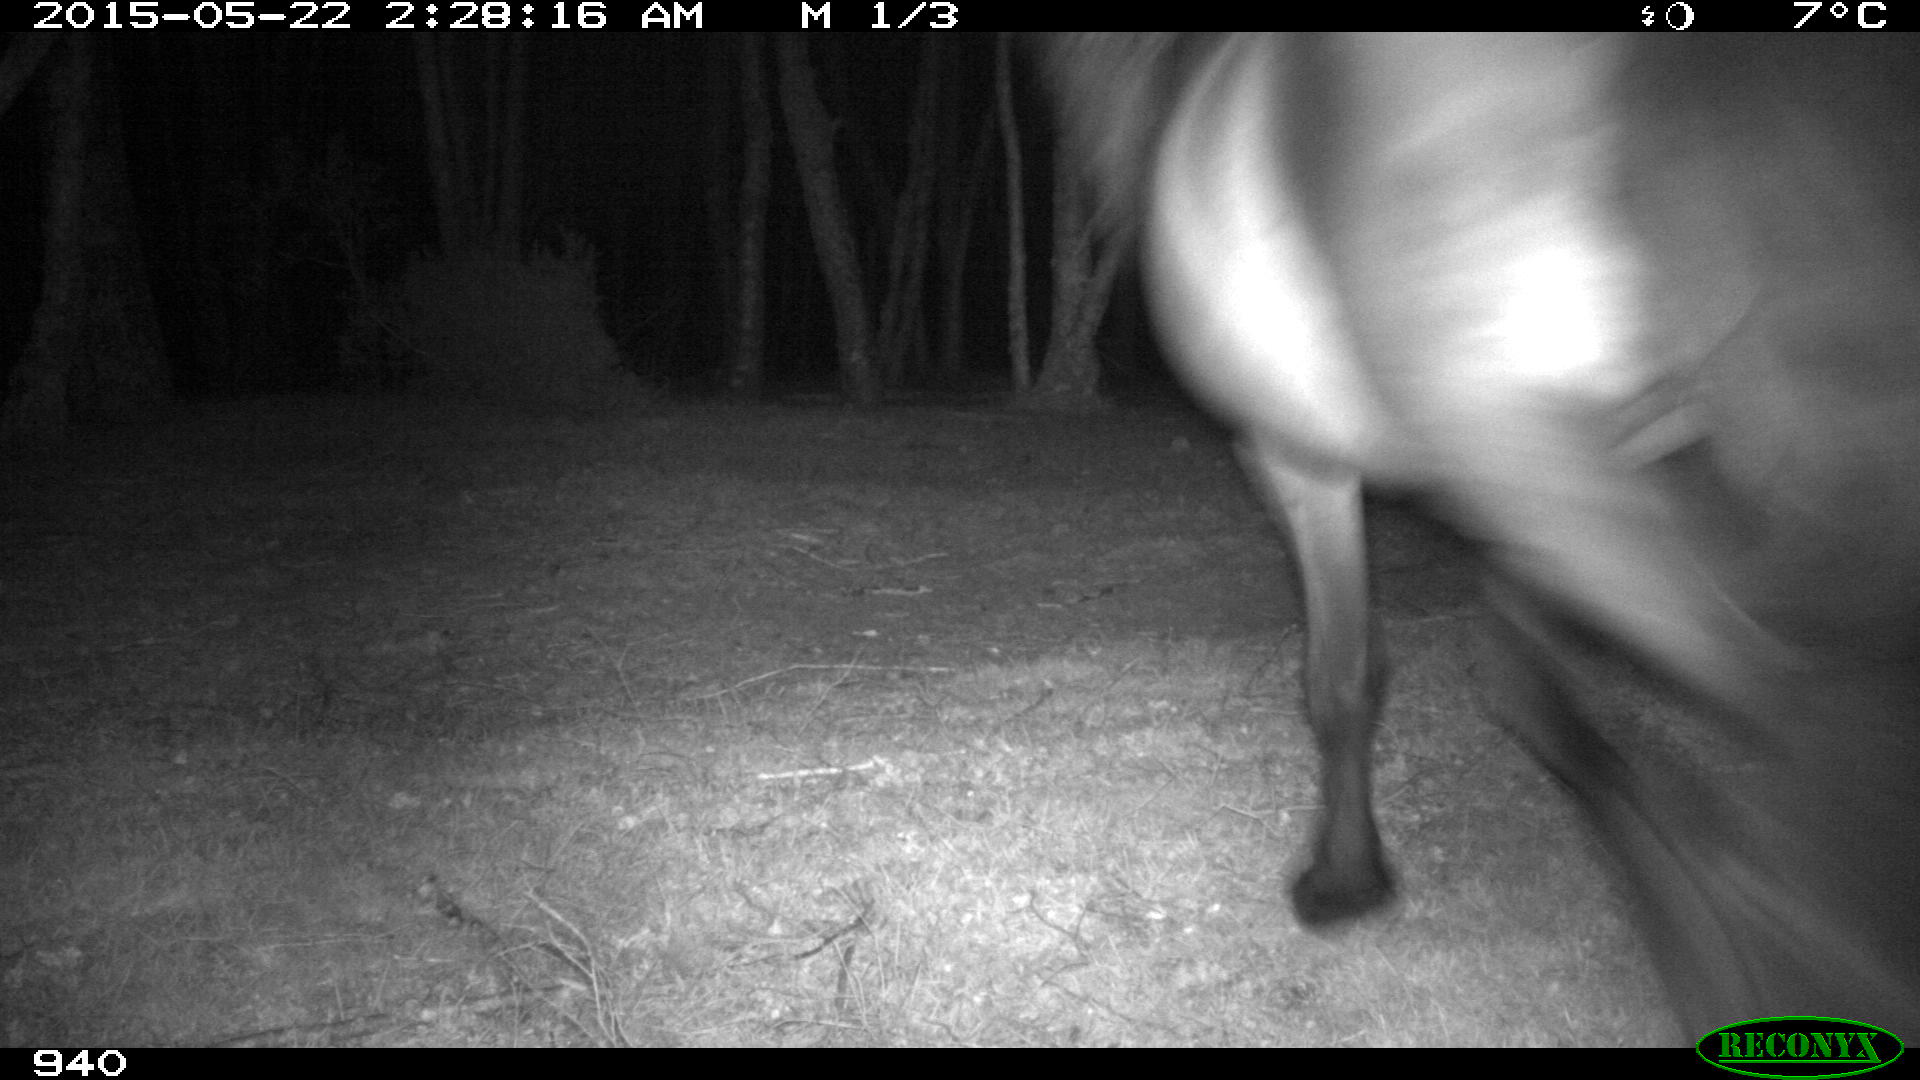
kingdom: Animalia
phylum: Chordata
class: Mammalia
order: Perissodactyla
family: Equidae
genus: Equus
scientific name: Equus caballus
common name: Horse
